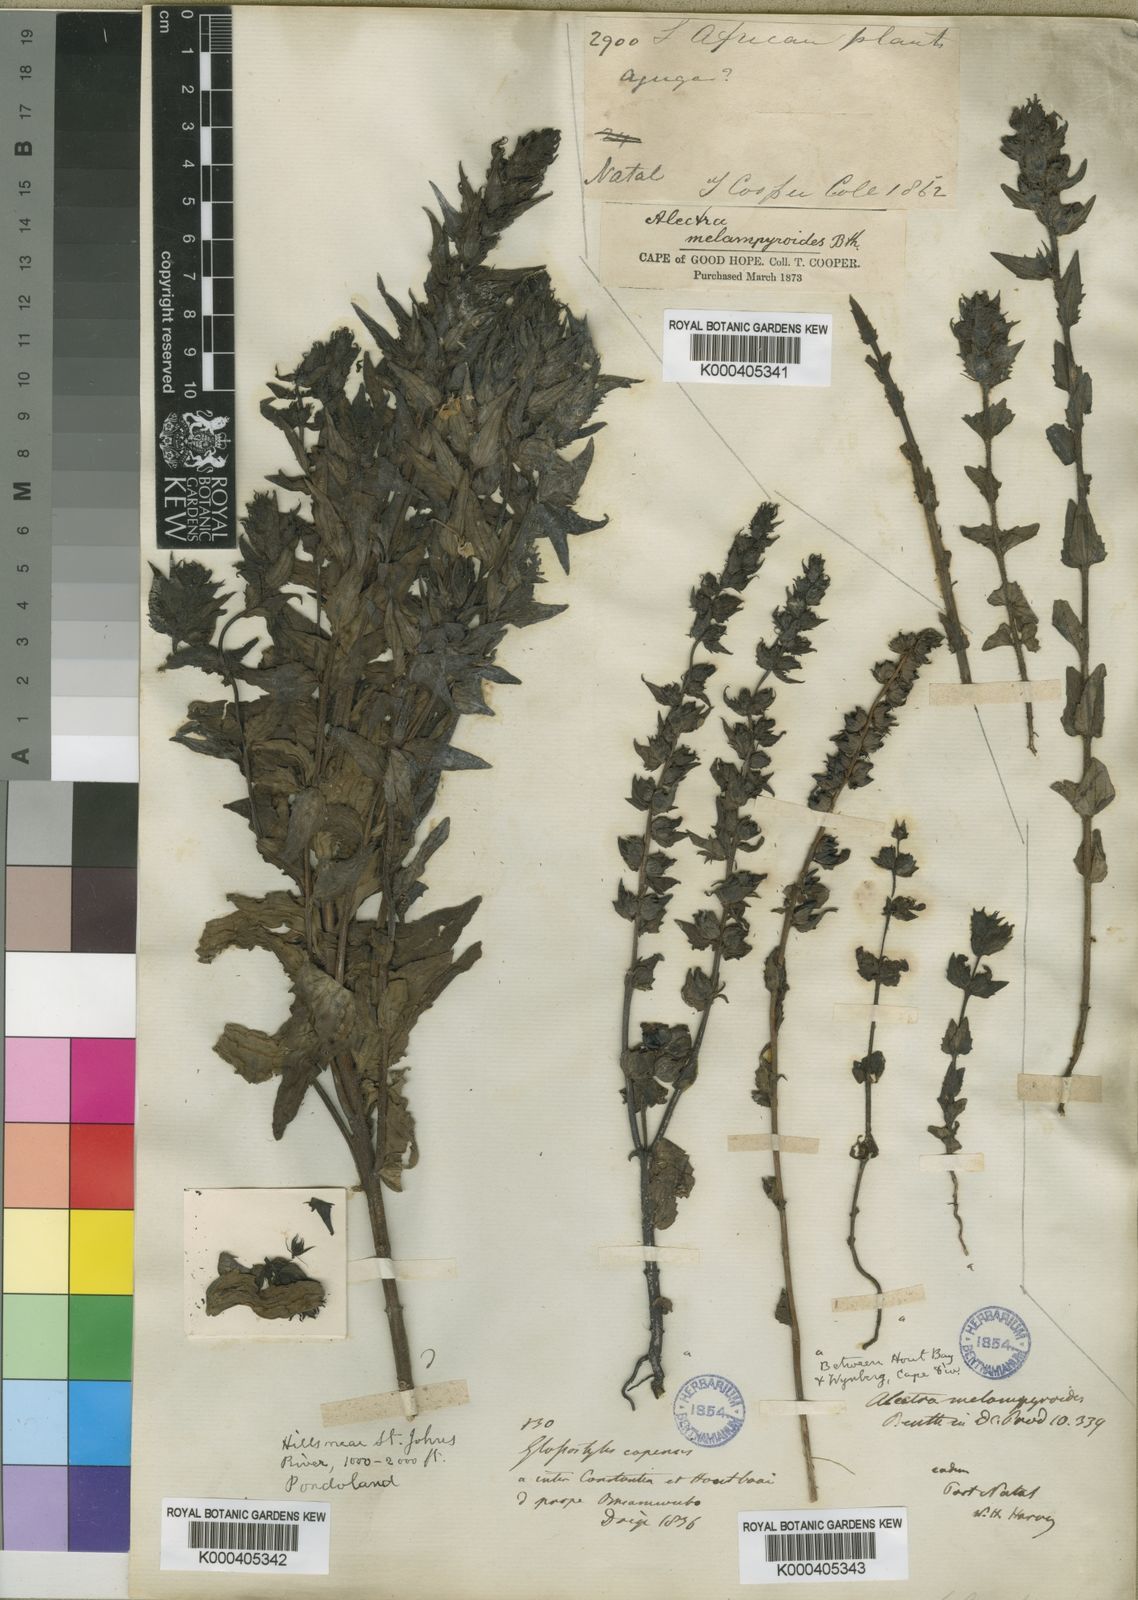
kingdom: Plantae
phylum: Tracheophyta
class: Magnoliopsida
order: Lamiales
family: Orobanchaceae
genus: Alectra
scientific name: Alectra sessiliflora
